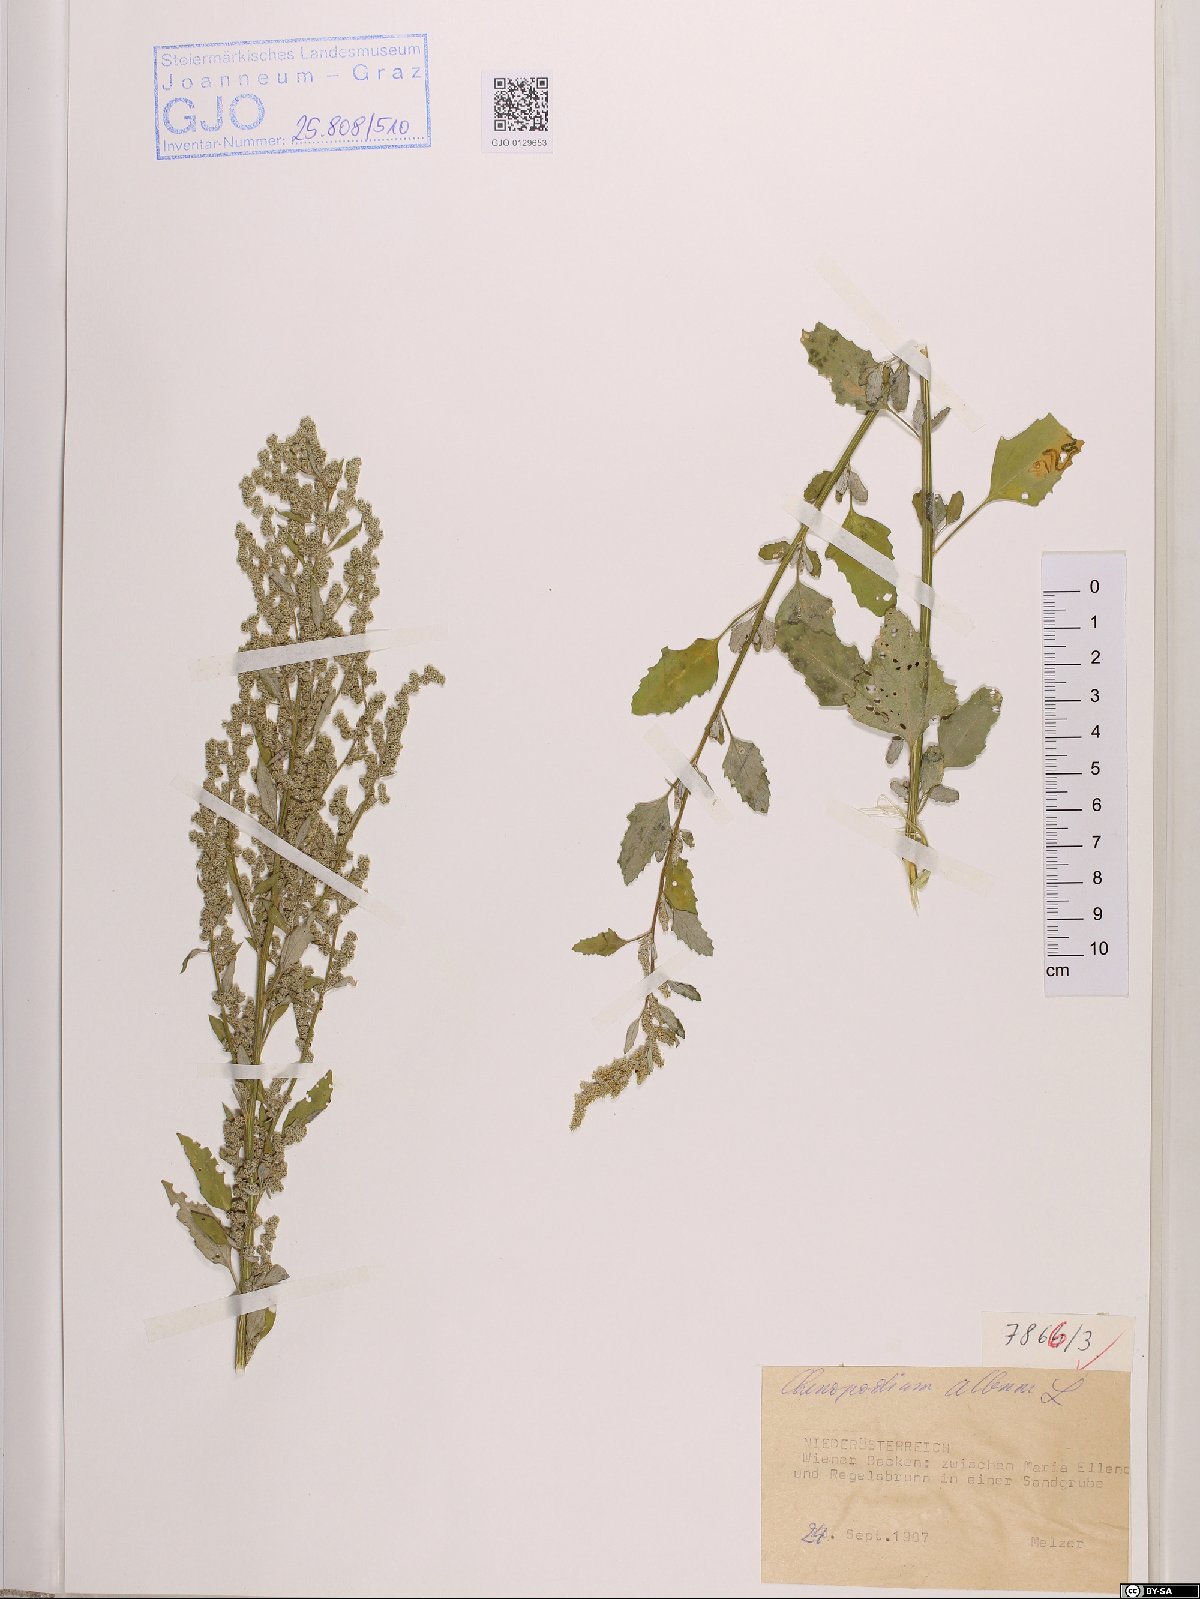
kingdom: Plantae
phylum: Tracheophyta
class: Magnoliopsida
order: Caryophyllales
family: Amaranthaceae
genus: Chenopodium
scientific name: Chenopodium album
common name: Fat-hen
